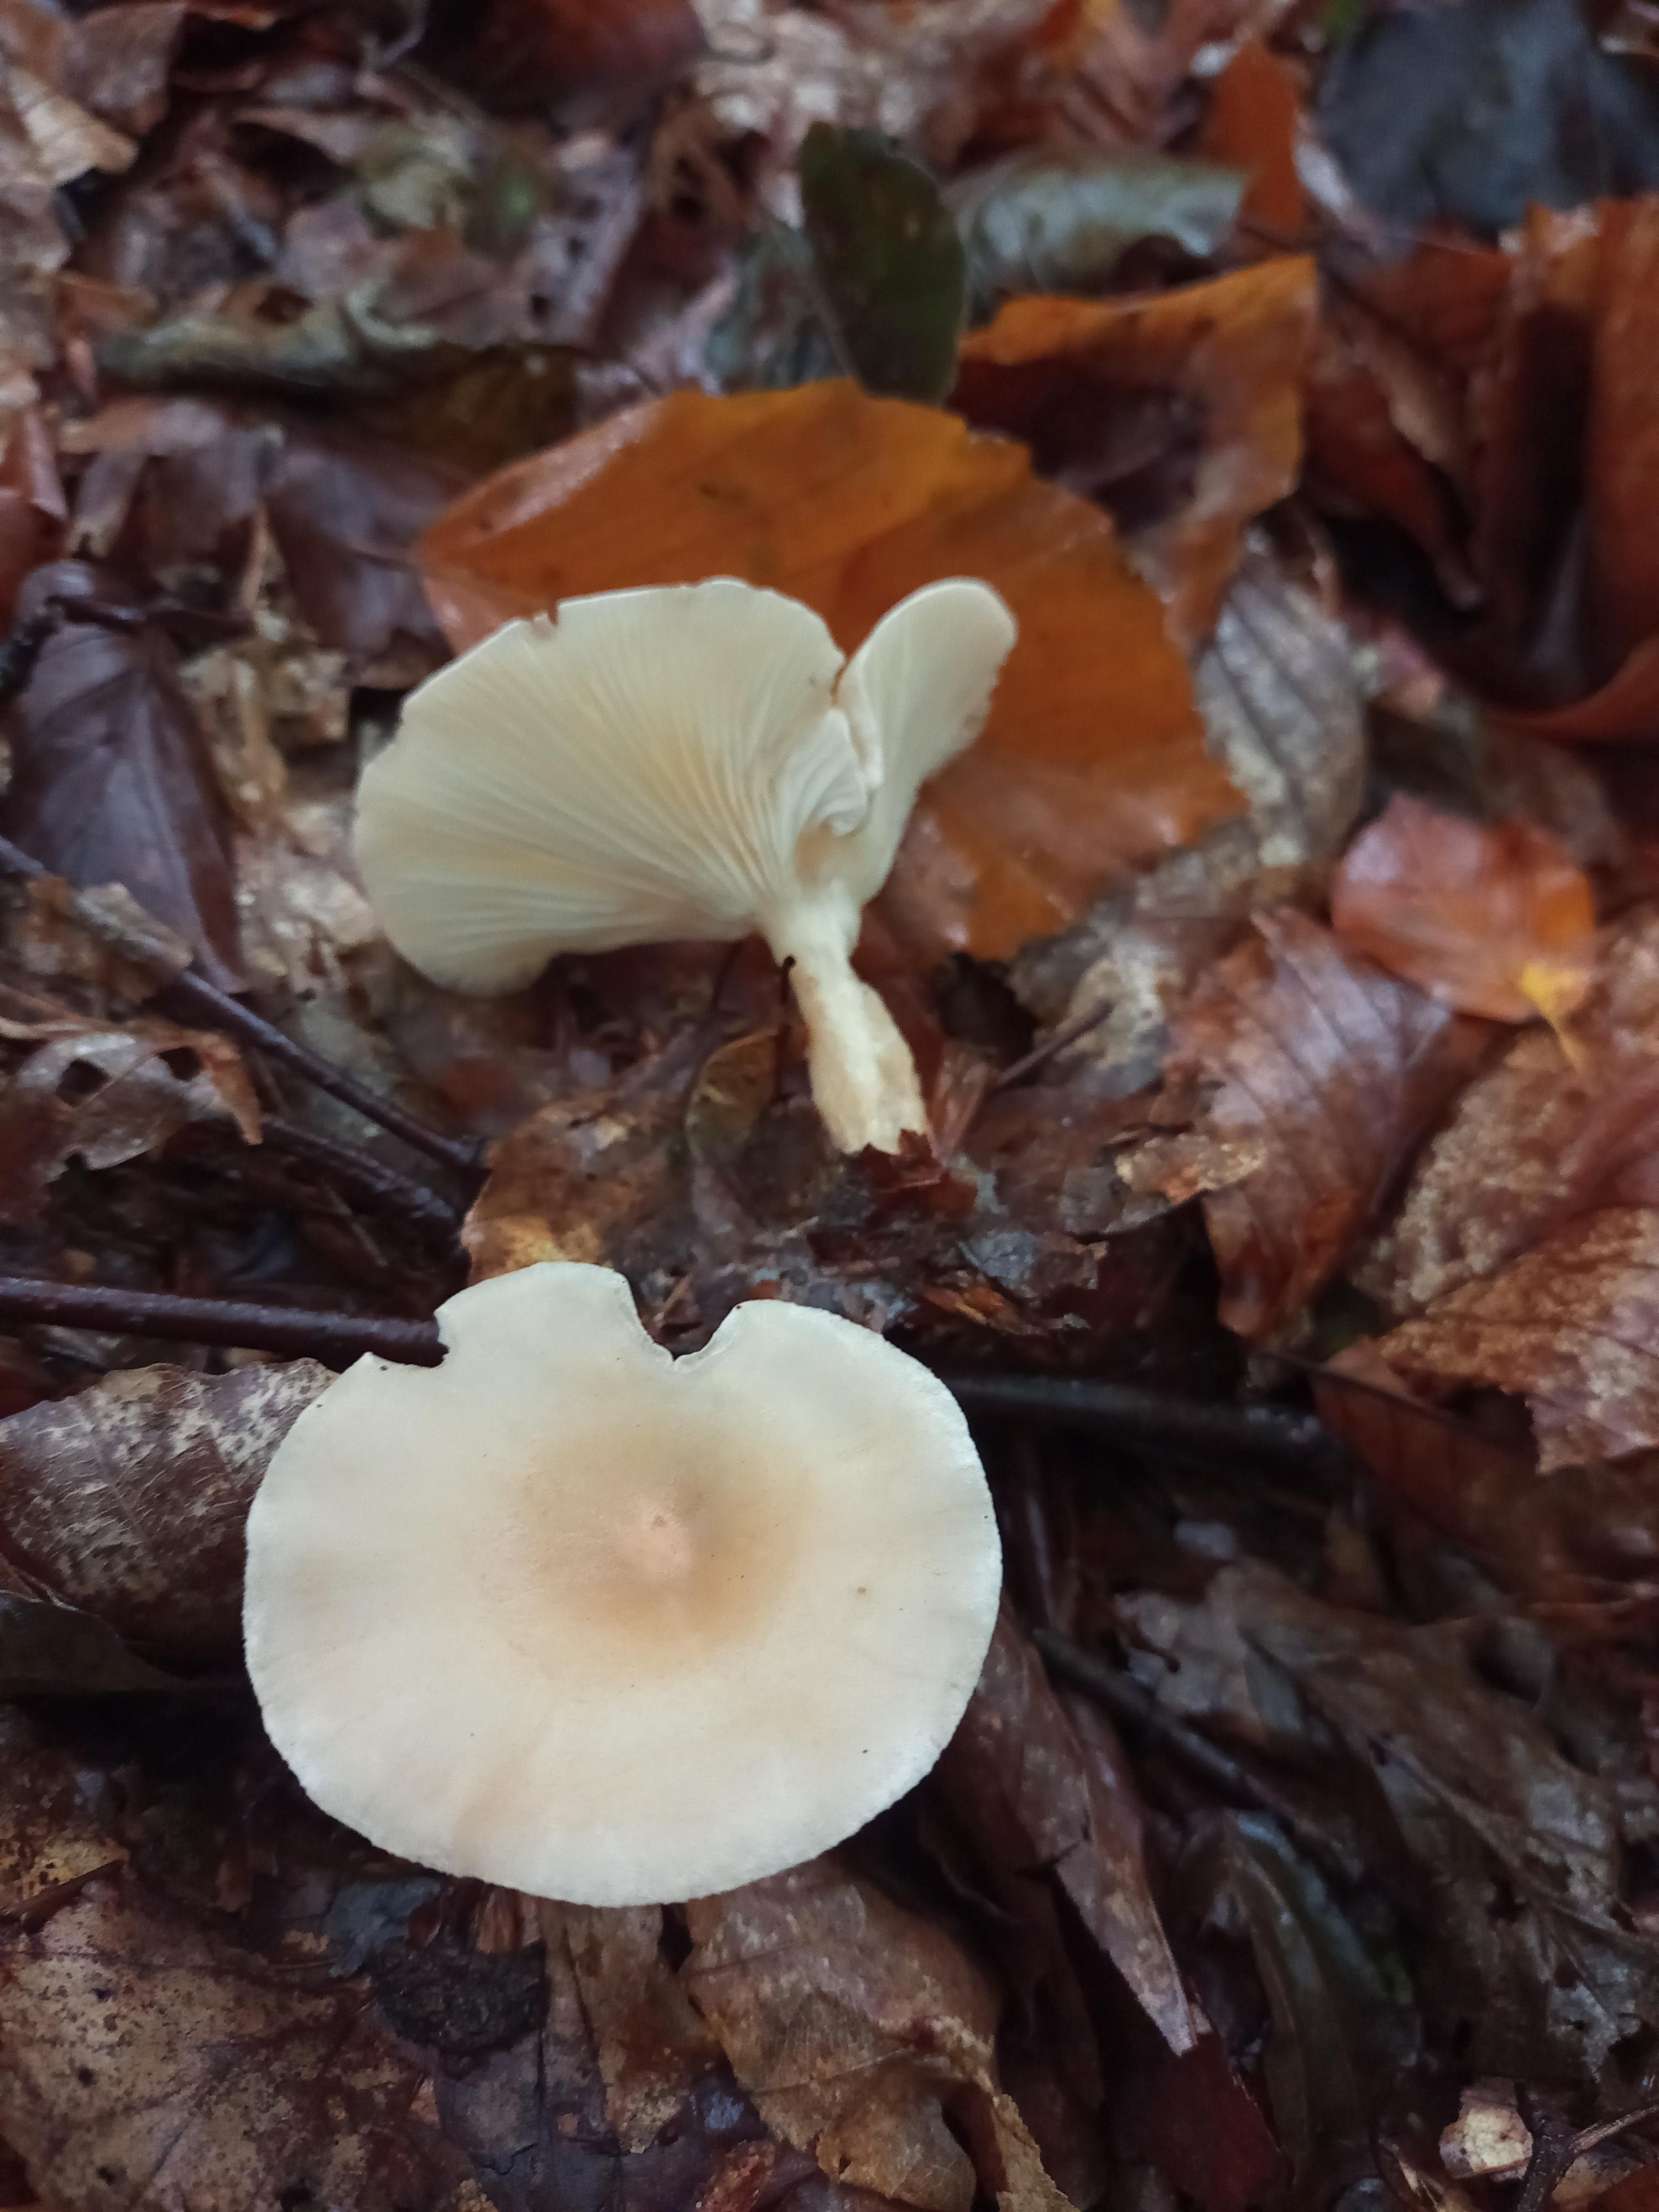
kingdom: Fungi
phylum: Basidiomycota
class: Agaricomycetes
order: Agaricales
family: Tricholomataceae
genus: Infundibulicybe
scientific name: Infundibulicybe gibba
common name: almindelig tragthat
